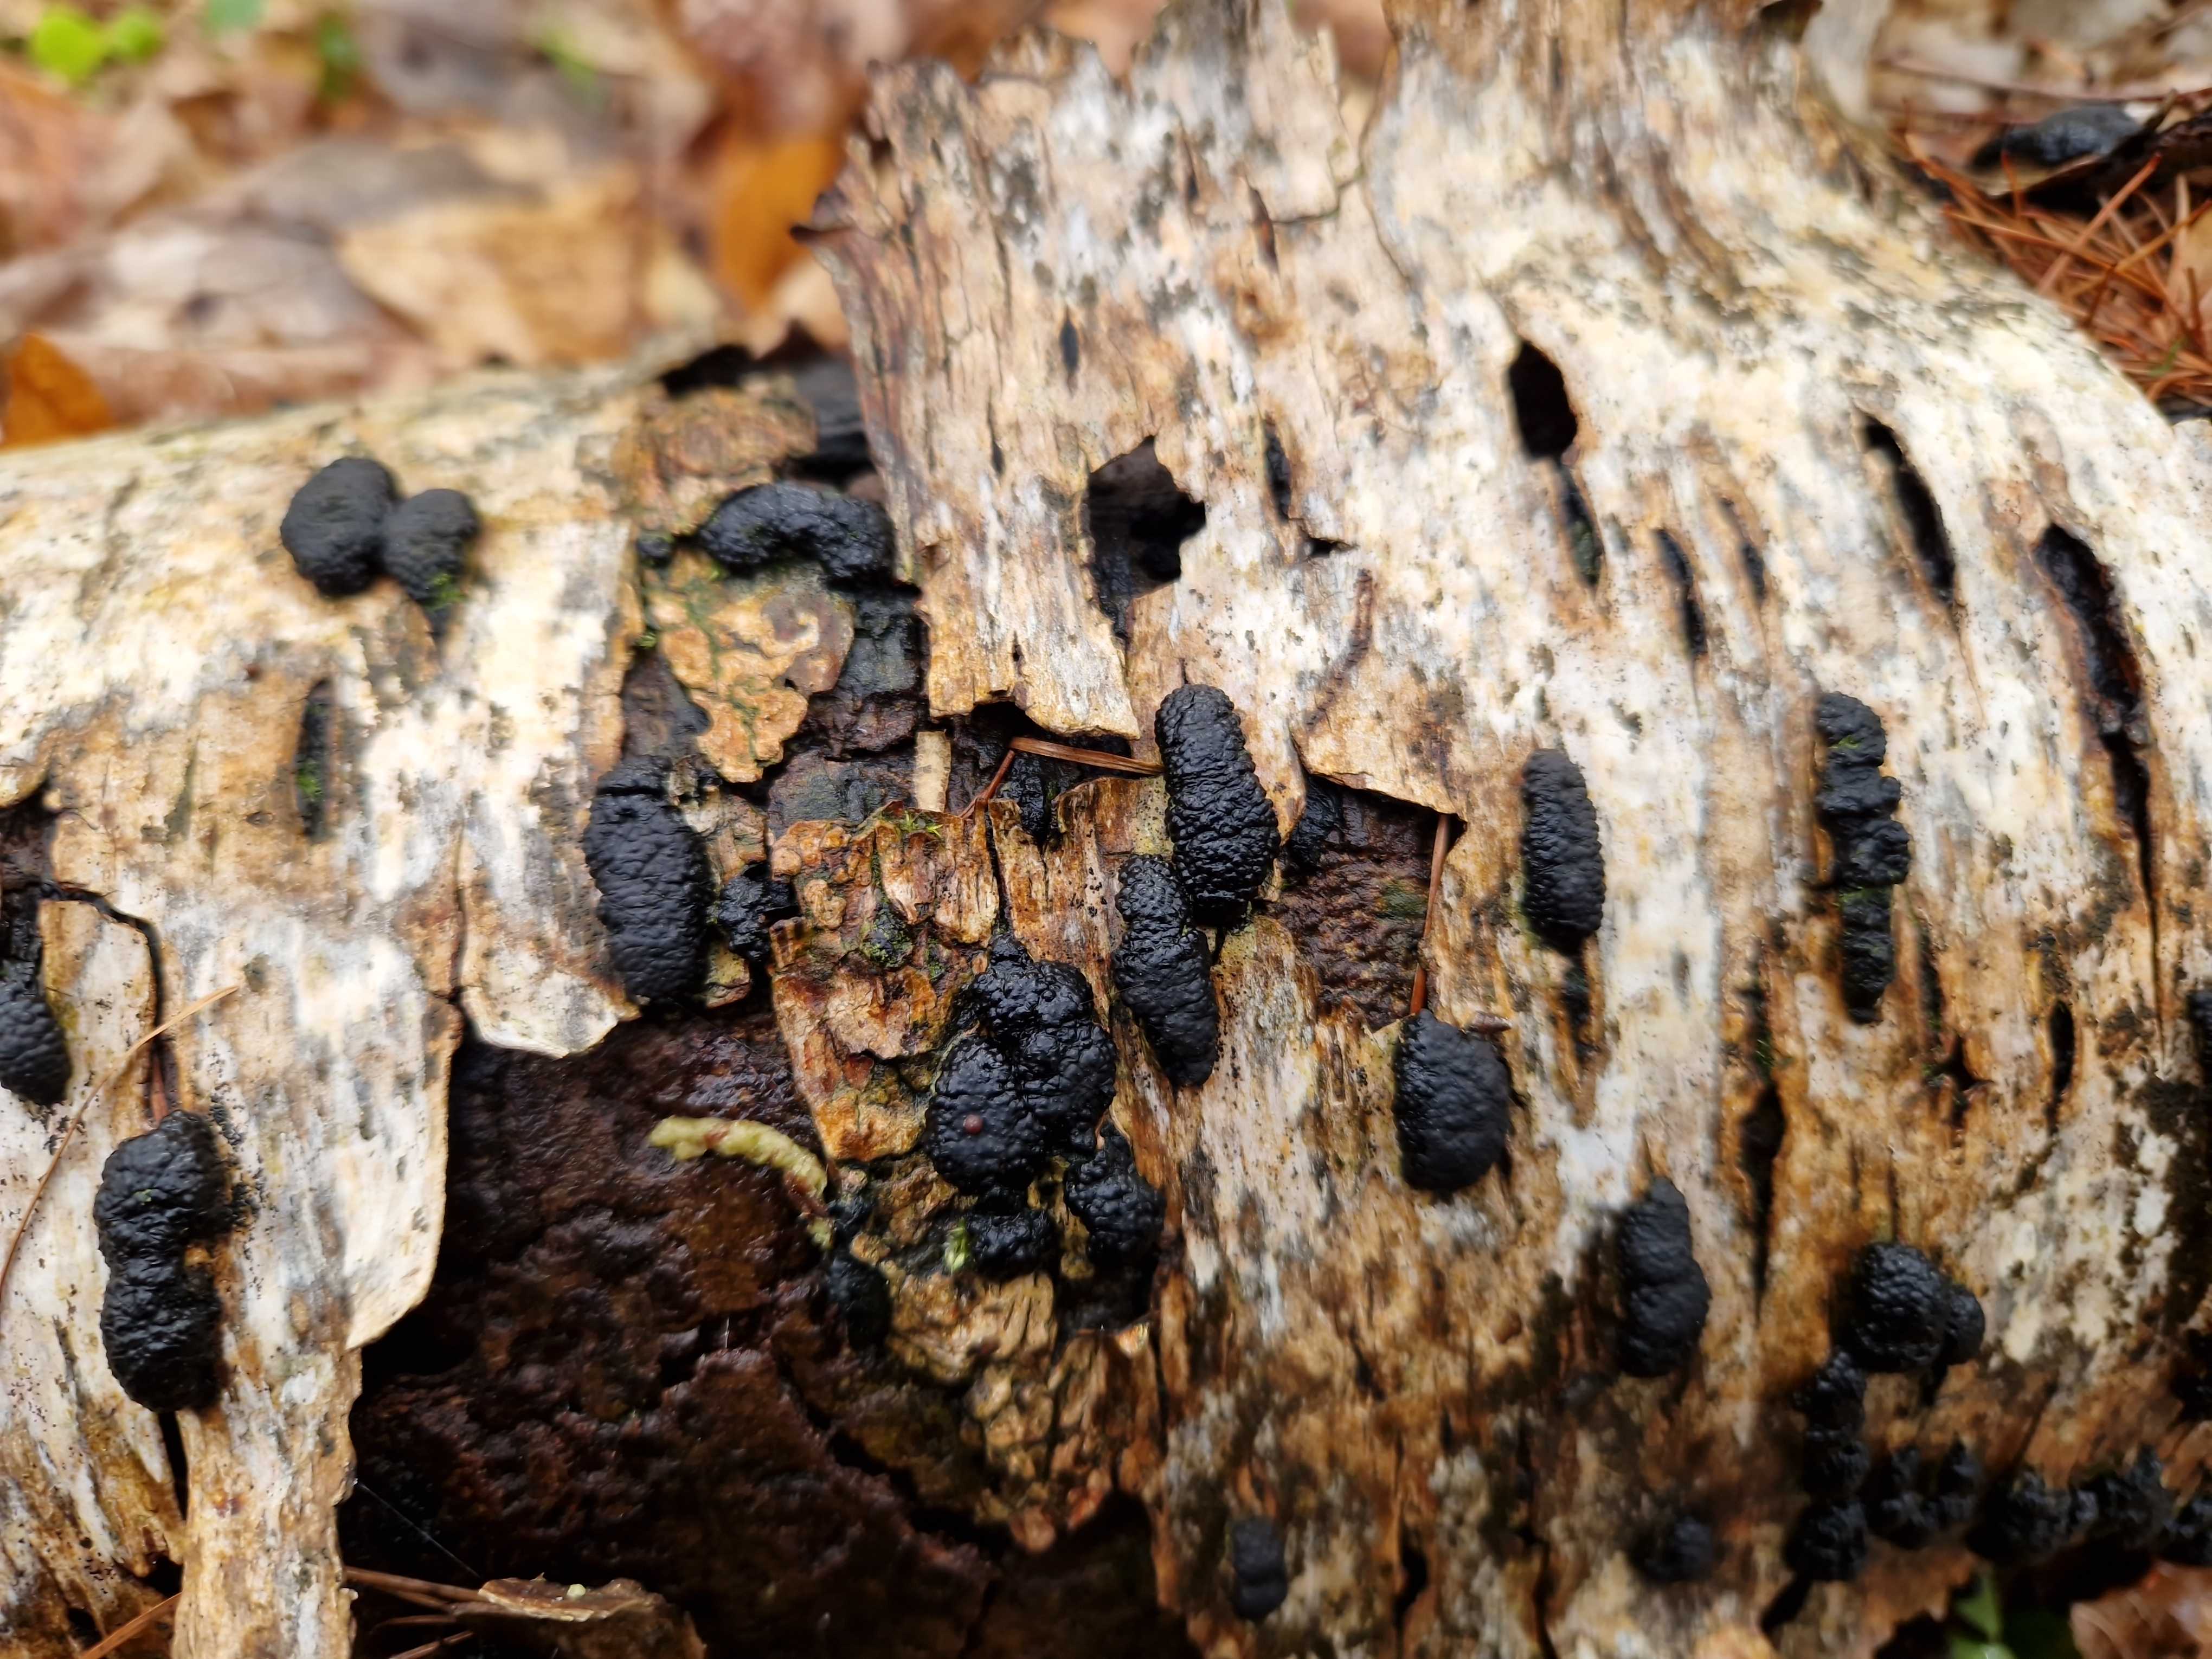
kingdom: Fungi
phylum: Ascomycota
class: Sordariomycetes
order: Xylariales
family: Hypoxylaceae
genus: Jackrogersella
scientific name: Jackrogersella multiformis
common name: foranderlig kulbær
